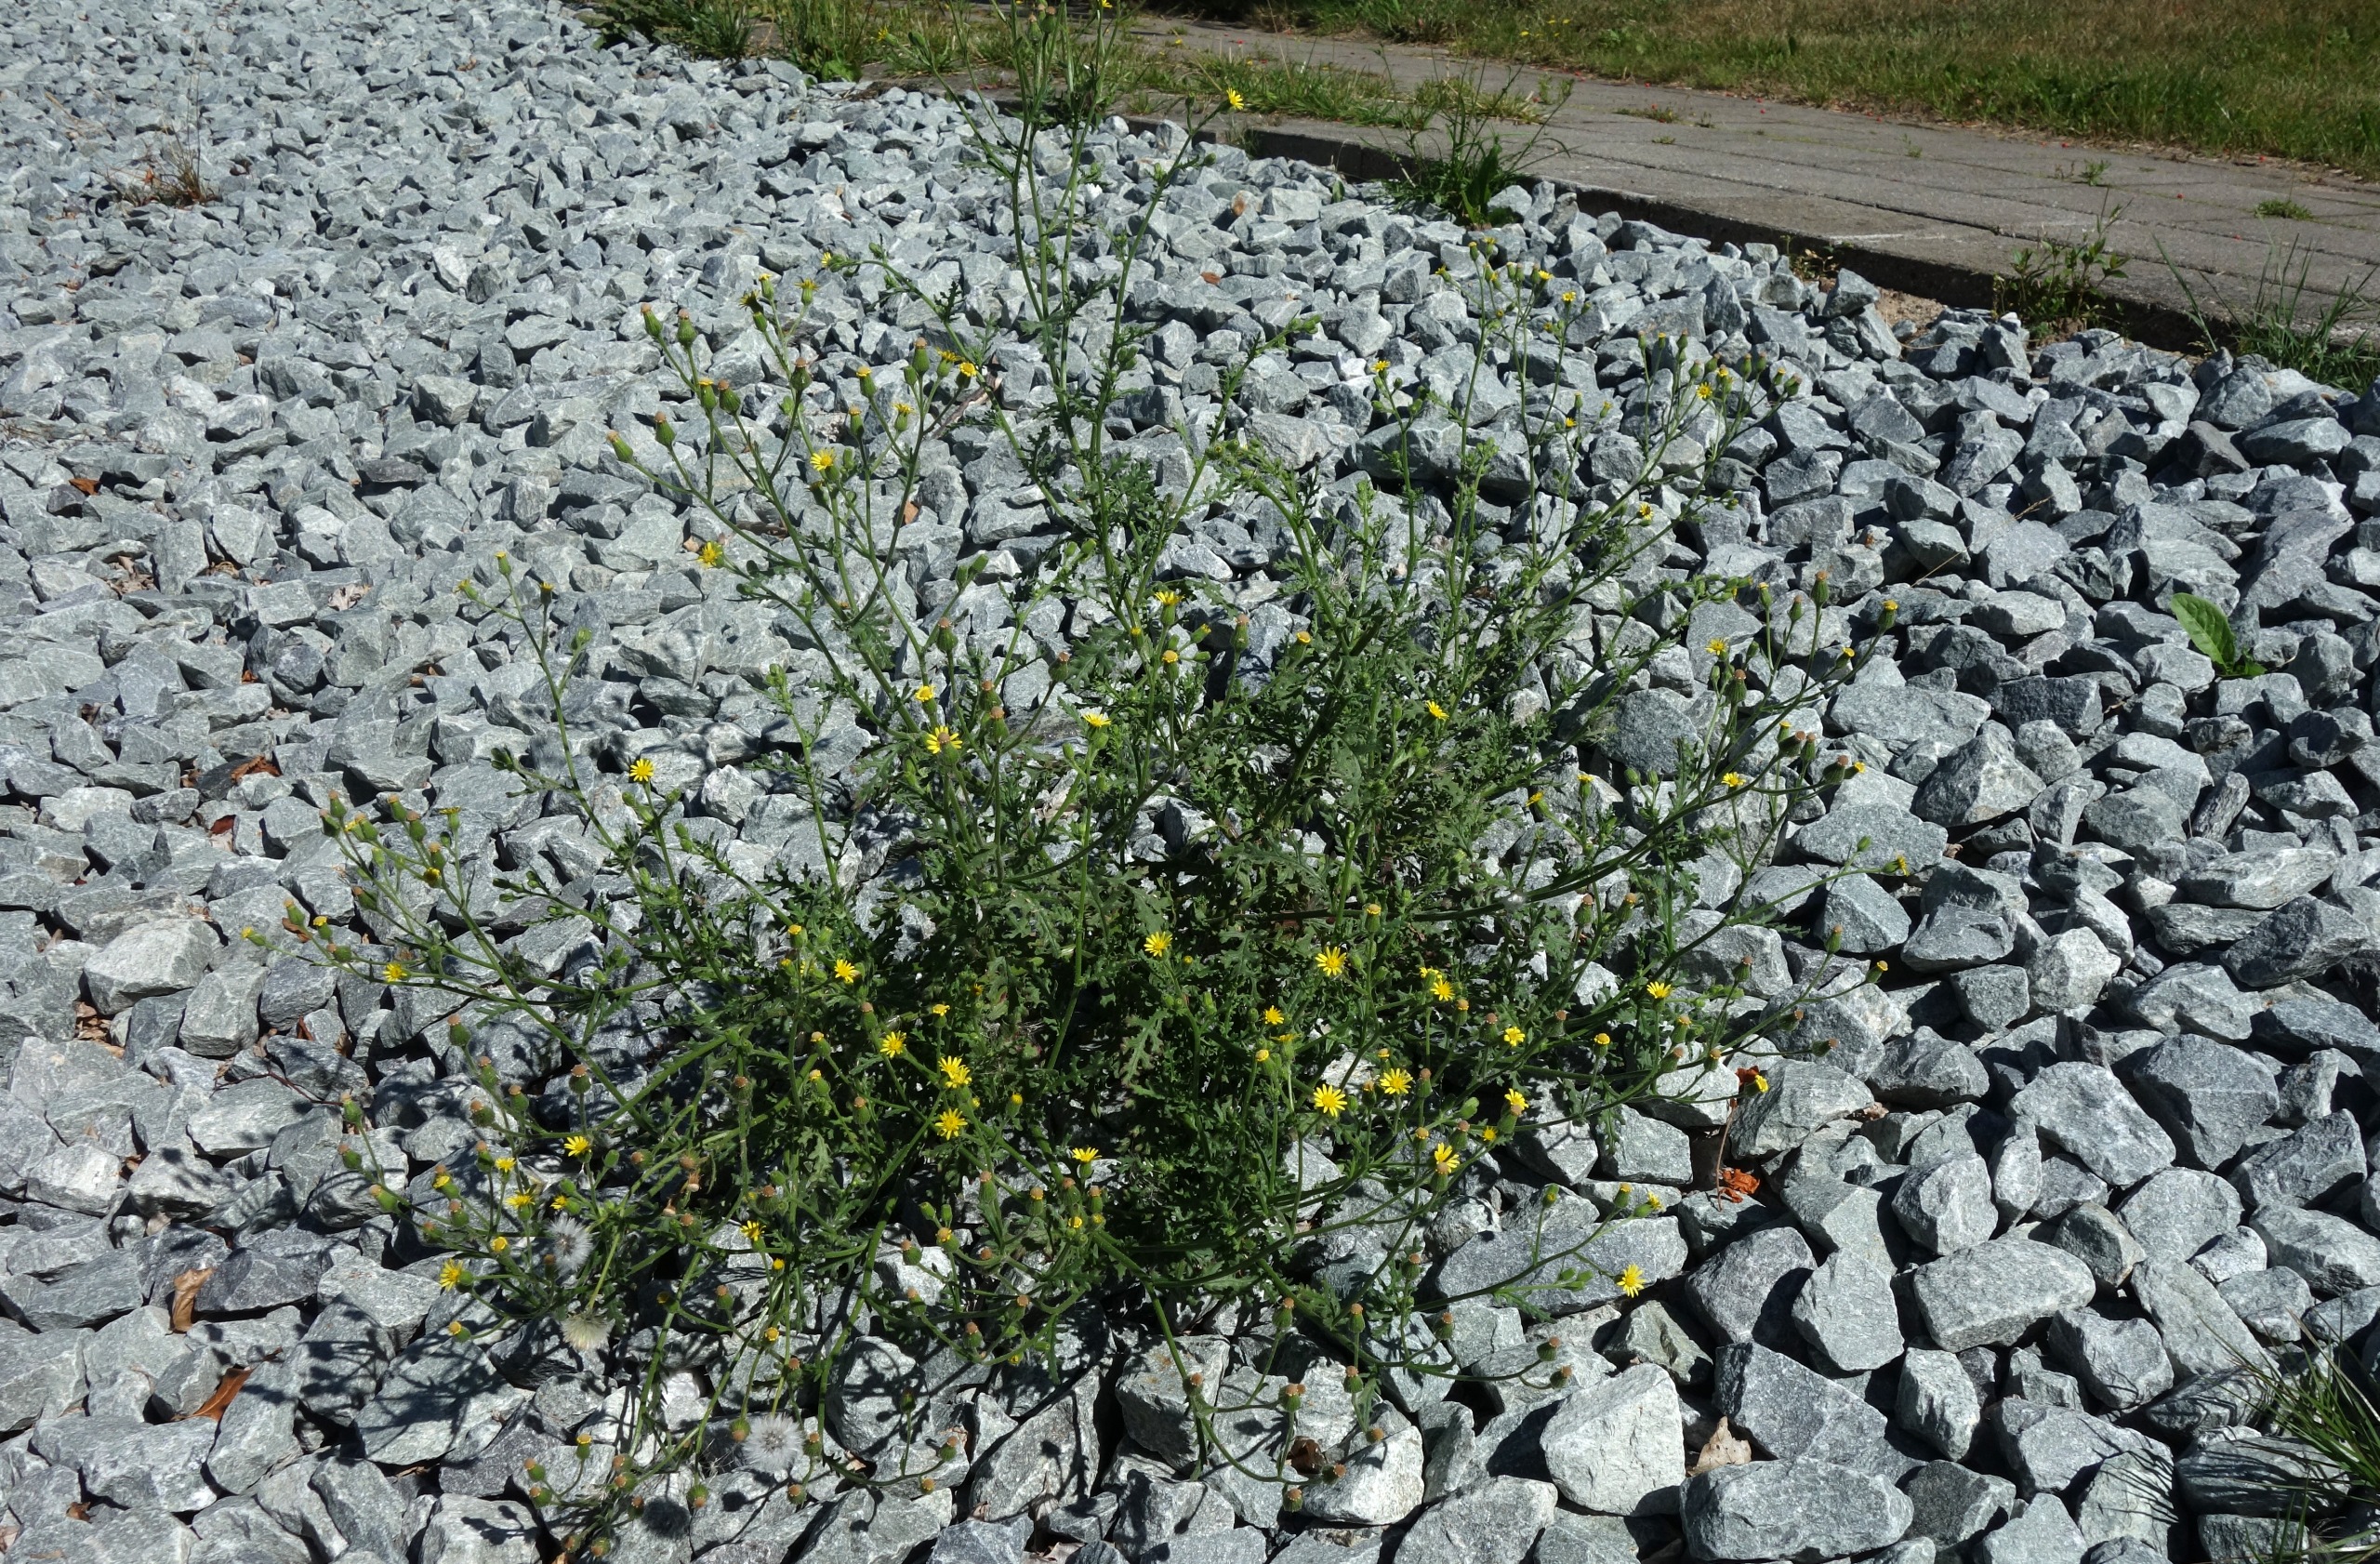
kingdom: Plantae
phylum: Tracheophyta
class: Magnoliopsida
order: Asterales
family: Asteraceae
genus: Senecio
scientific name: Senecio viscosus
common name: Klæbrig brandbæger
